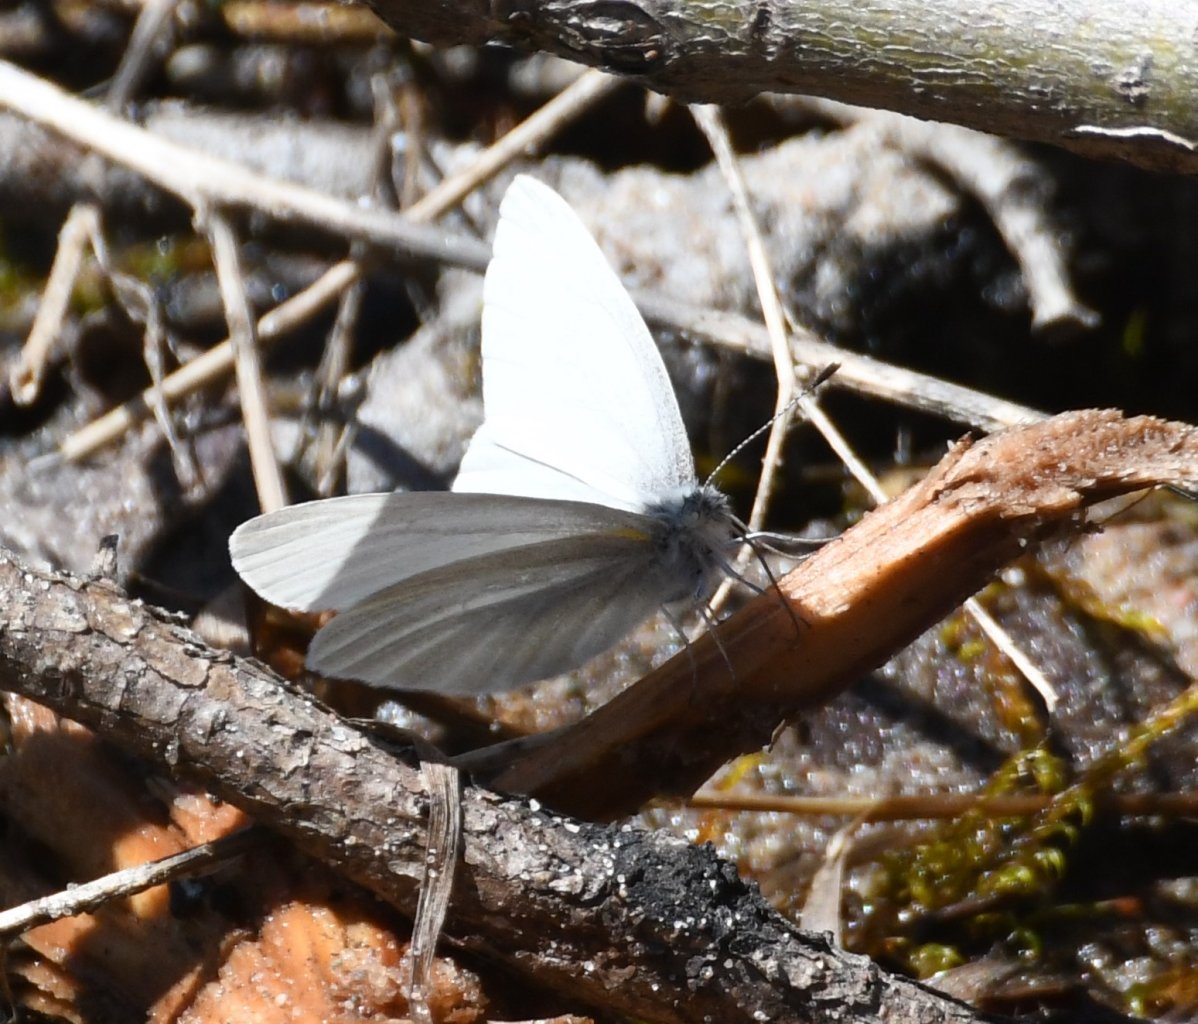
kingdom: Animalia
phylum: Arthropoda
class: Insecta
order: Lepidoptera
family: Pieridae
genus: Pieris
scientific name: Pieris virginiensis
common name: West Virginia White
